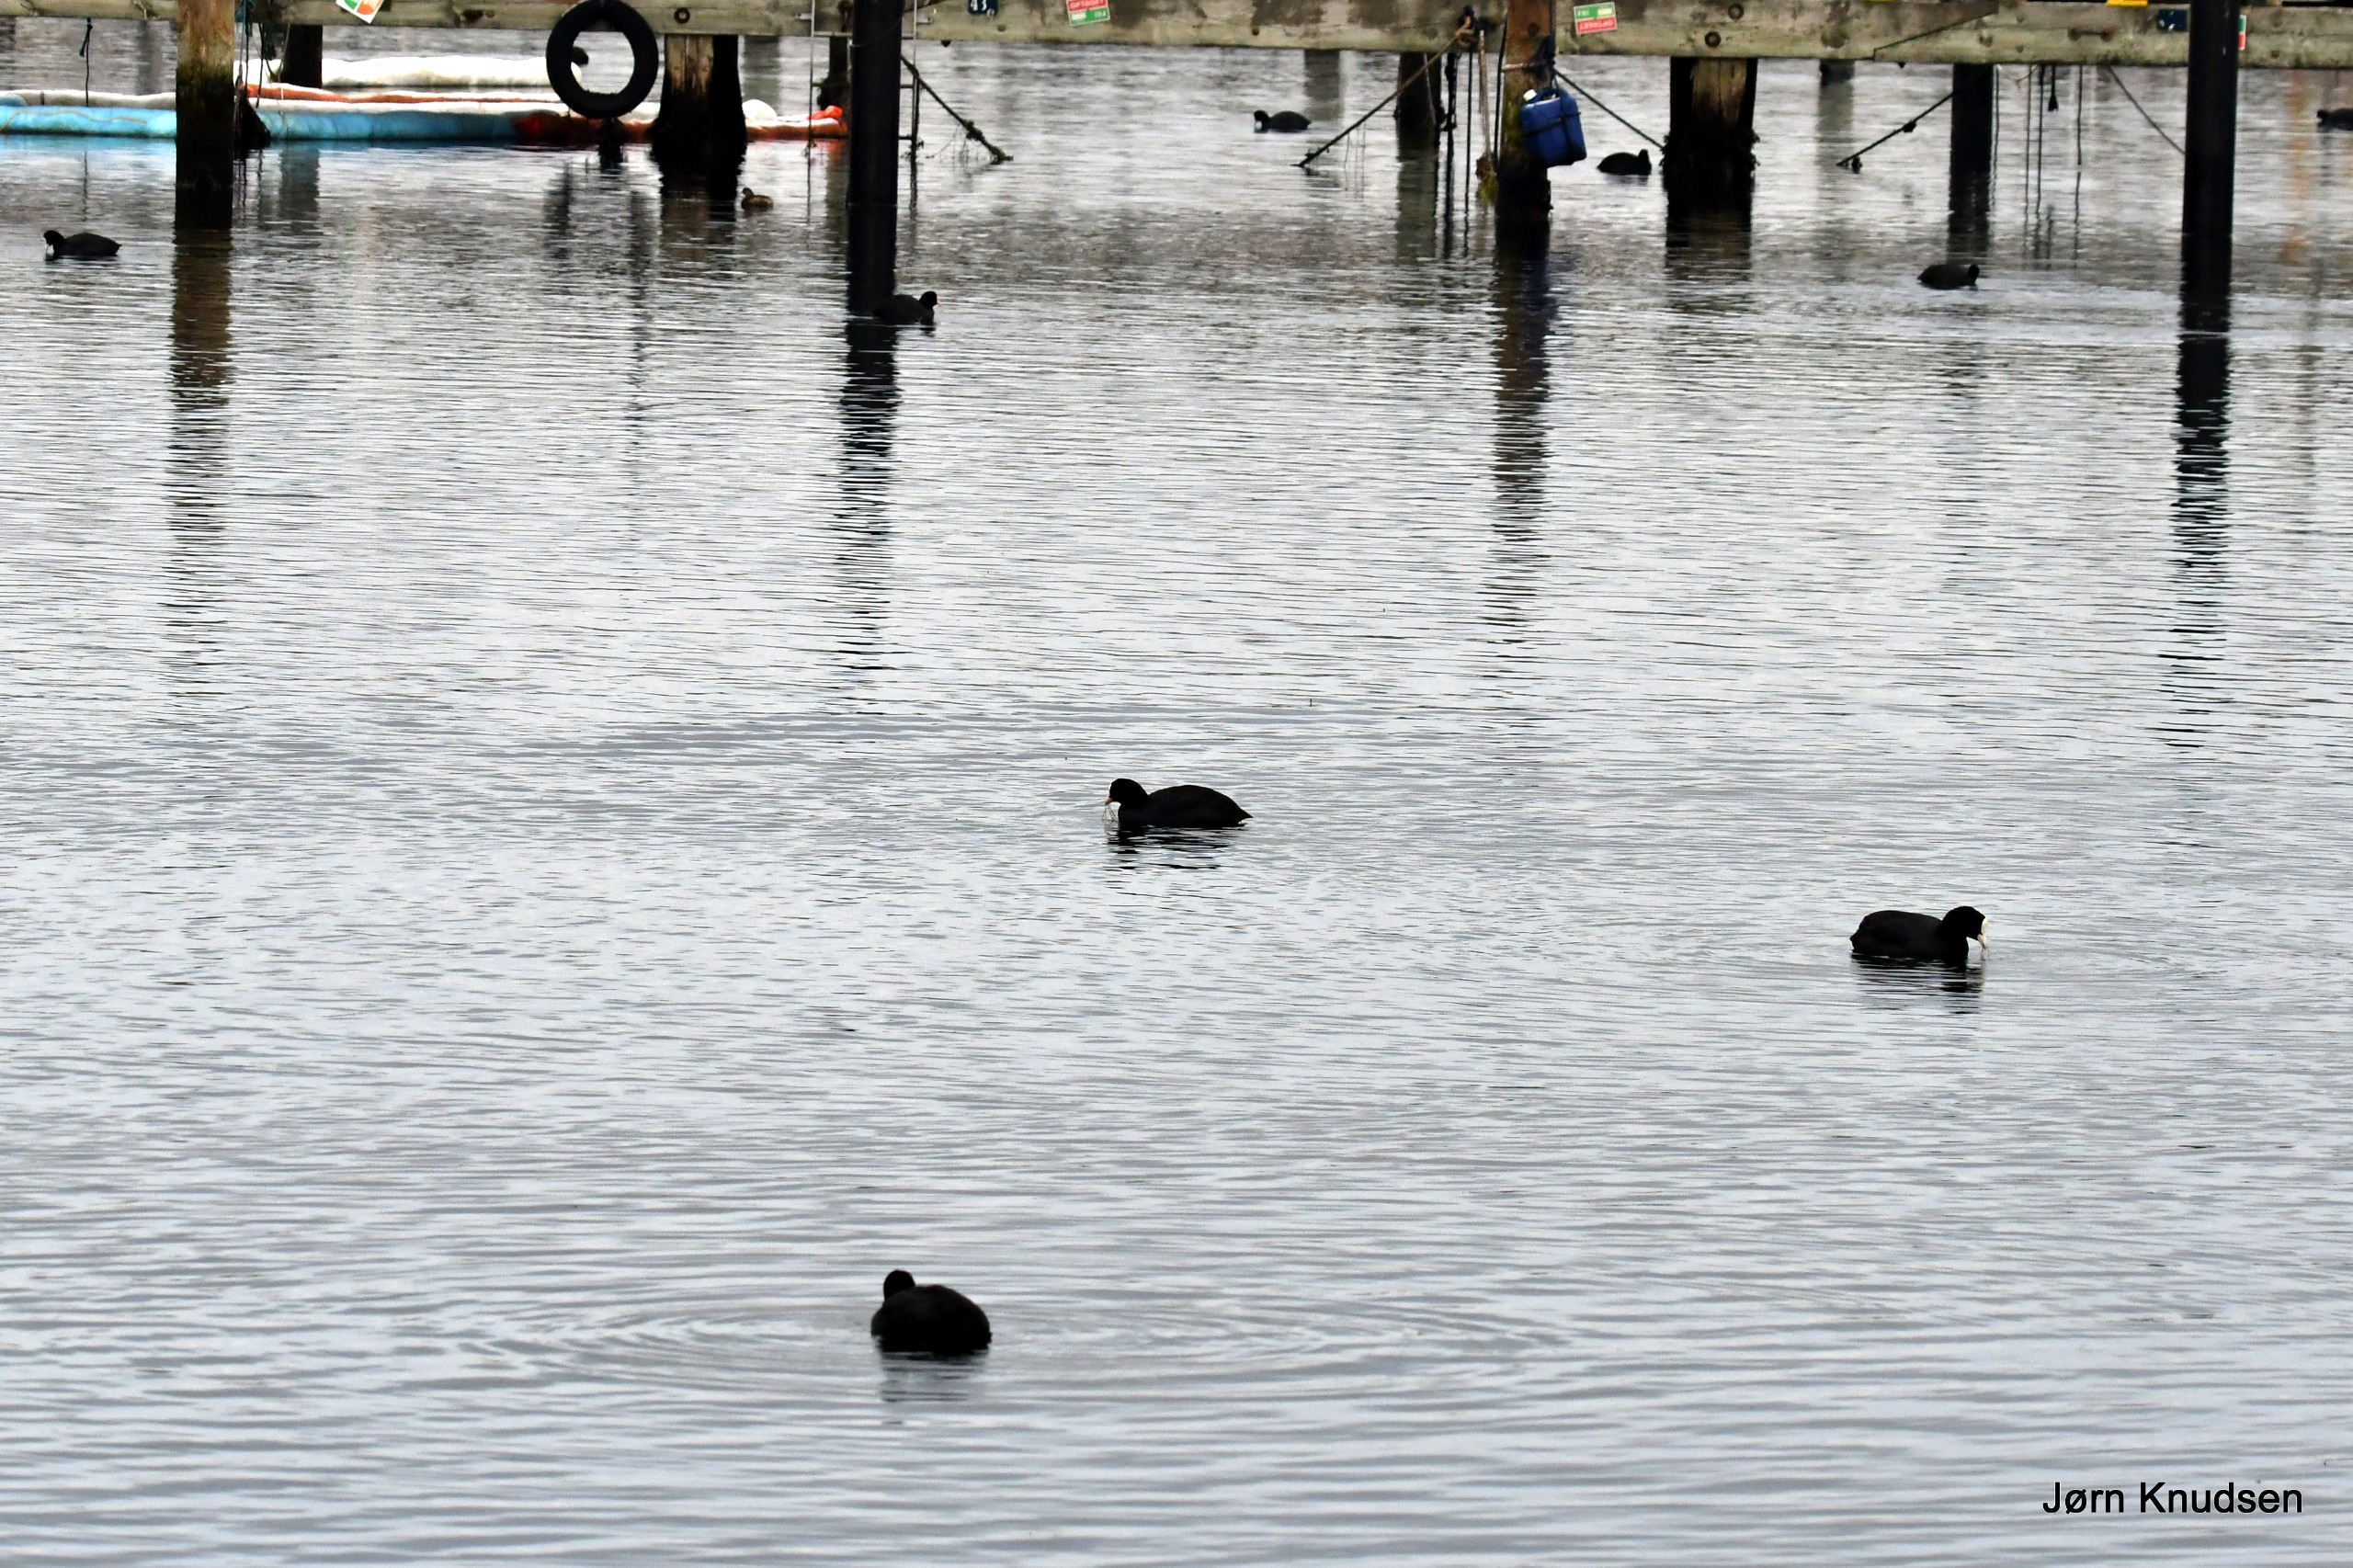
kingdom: Animalia
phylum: Chordata
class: Aves
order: Gruiformes
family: Rallidae
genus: Fulica
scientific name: Fulica atra
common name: Blishøne
